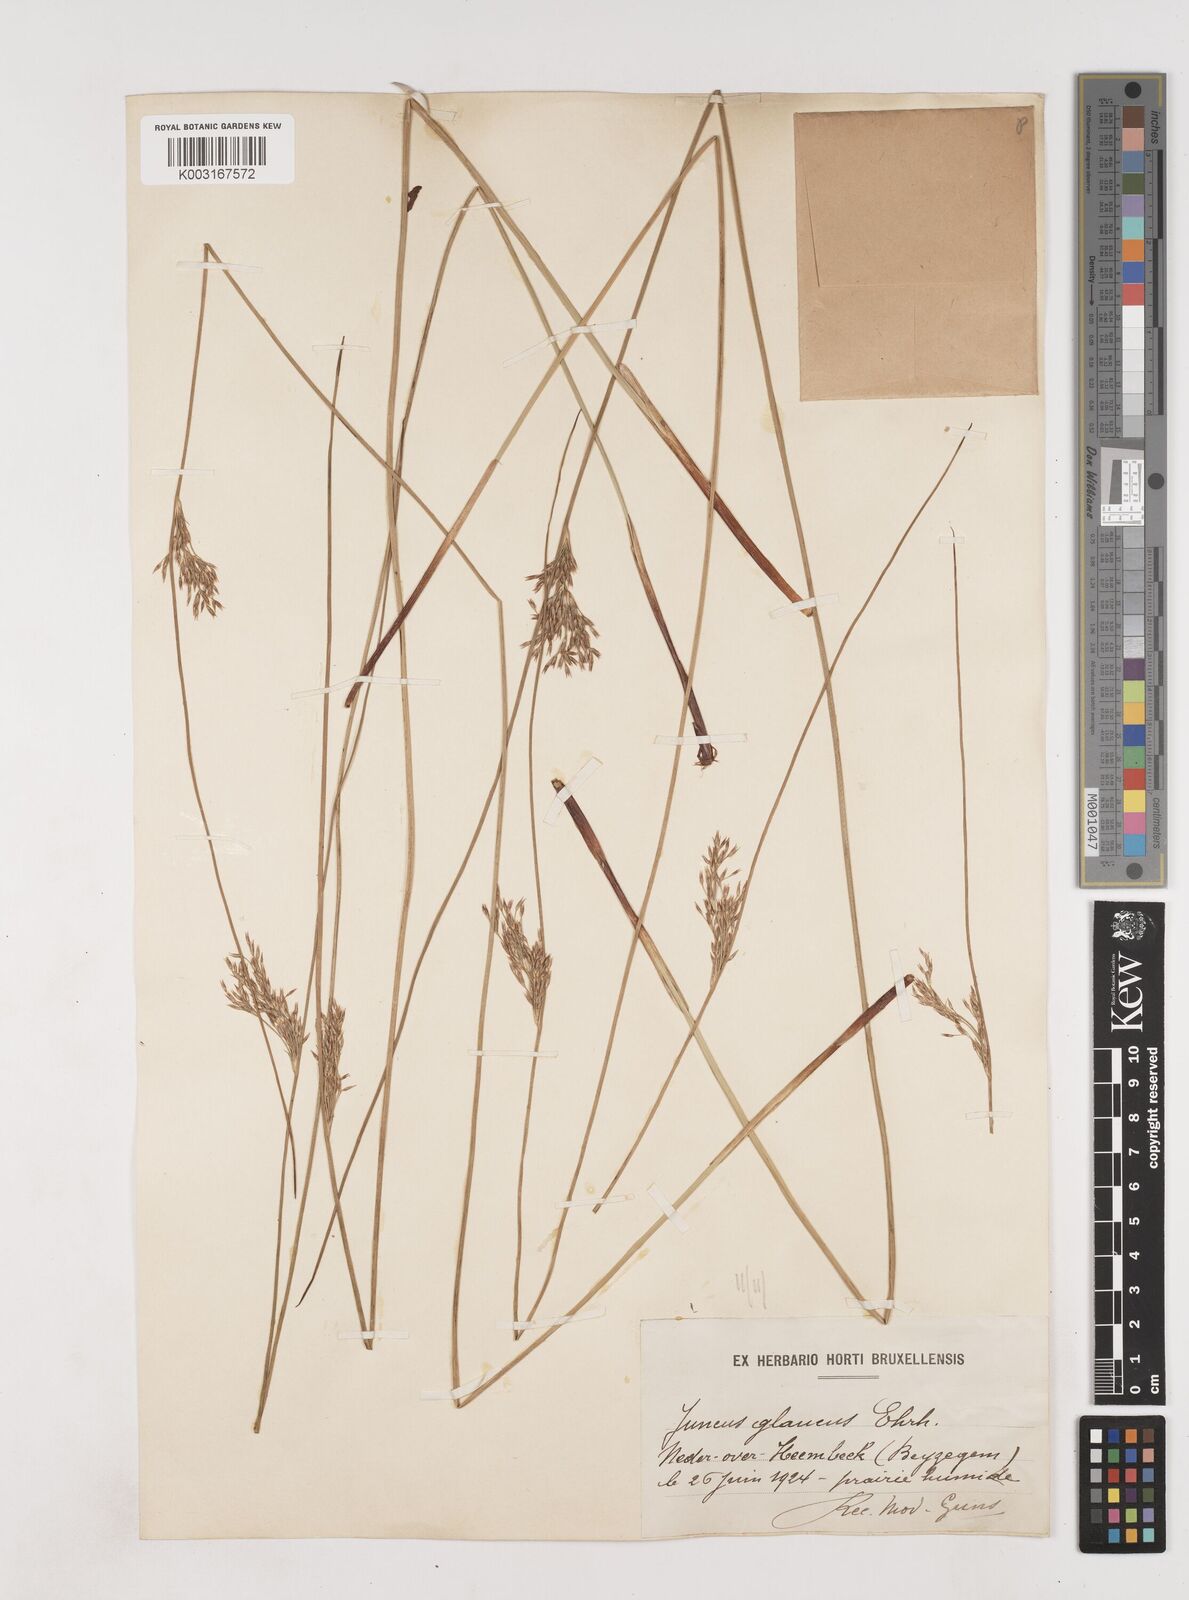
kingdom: Plantae
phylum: Tracheophyta
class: Liliopsida
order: Poales
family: Juncaceae
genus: Juncus
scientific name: Juncus inflexus
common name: Hard rush
